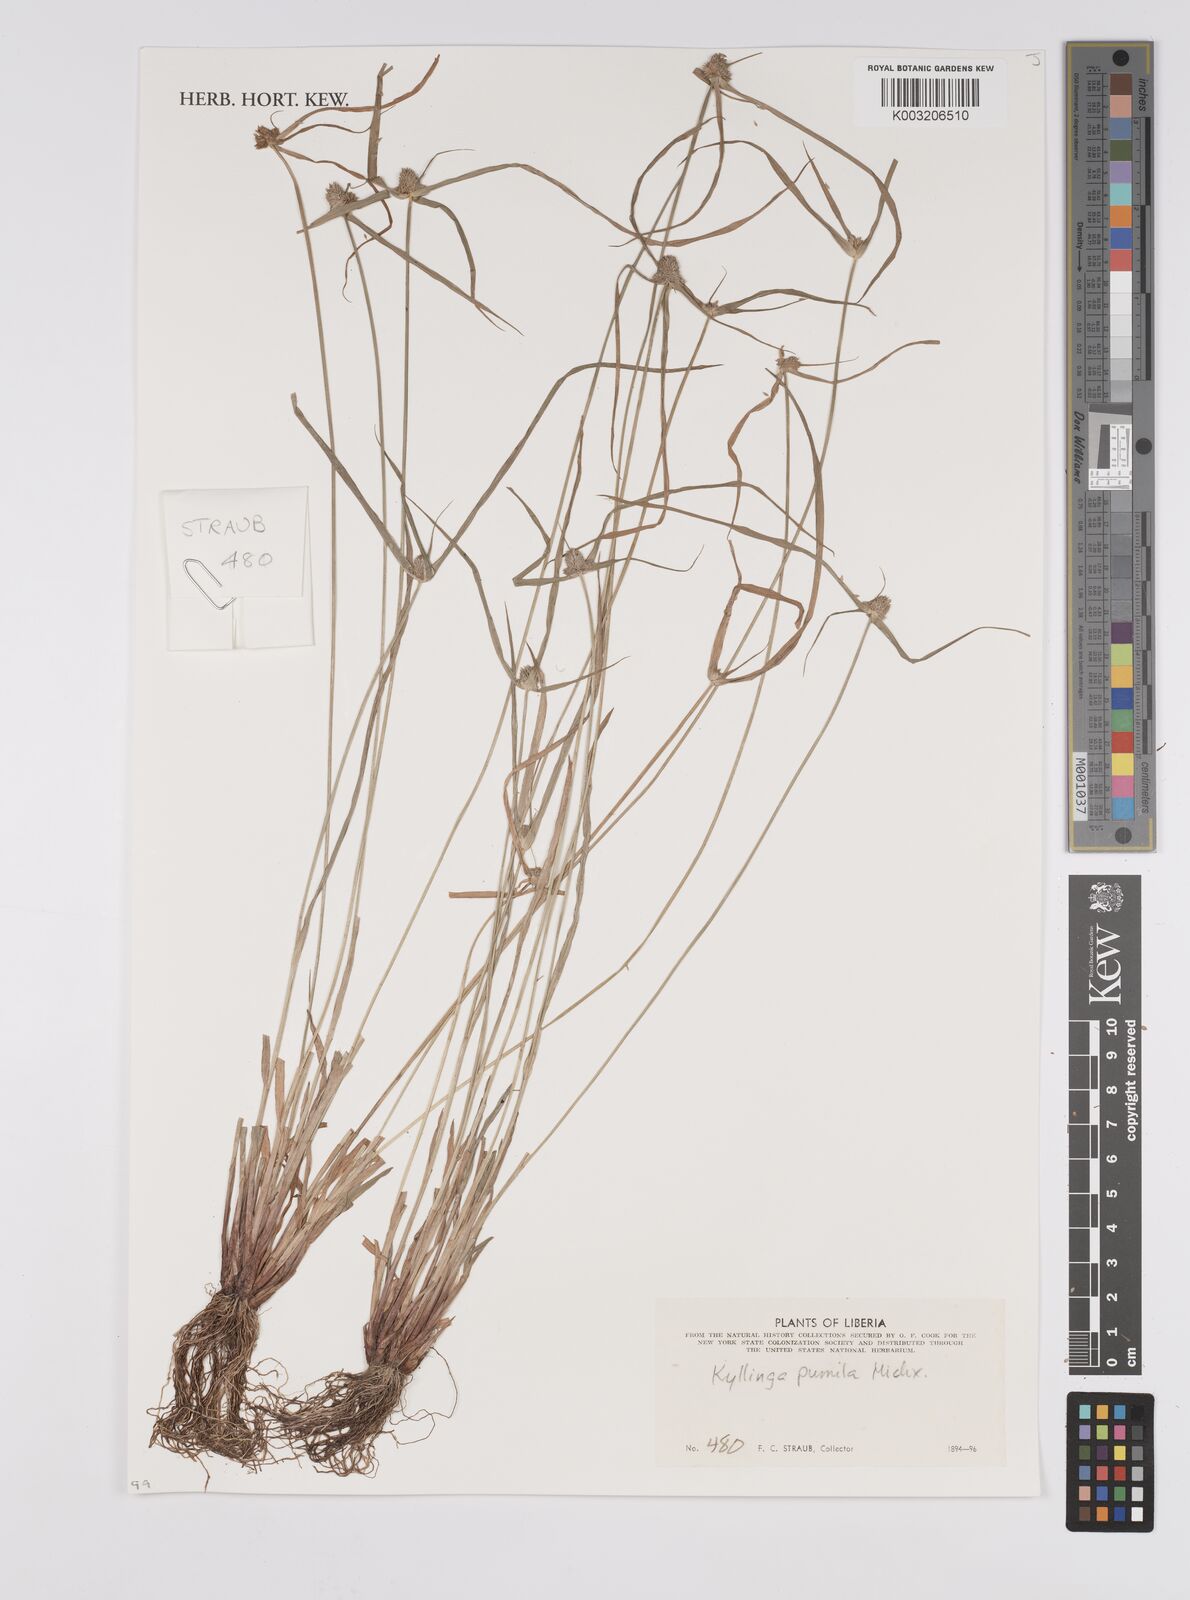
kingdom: Plantae
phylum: Tracheophyta
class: Liliopsida
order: Poales
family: Cyperaceae
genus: Cyperus
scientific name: Cyperus
